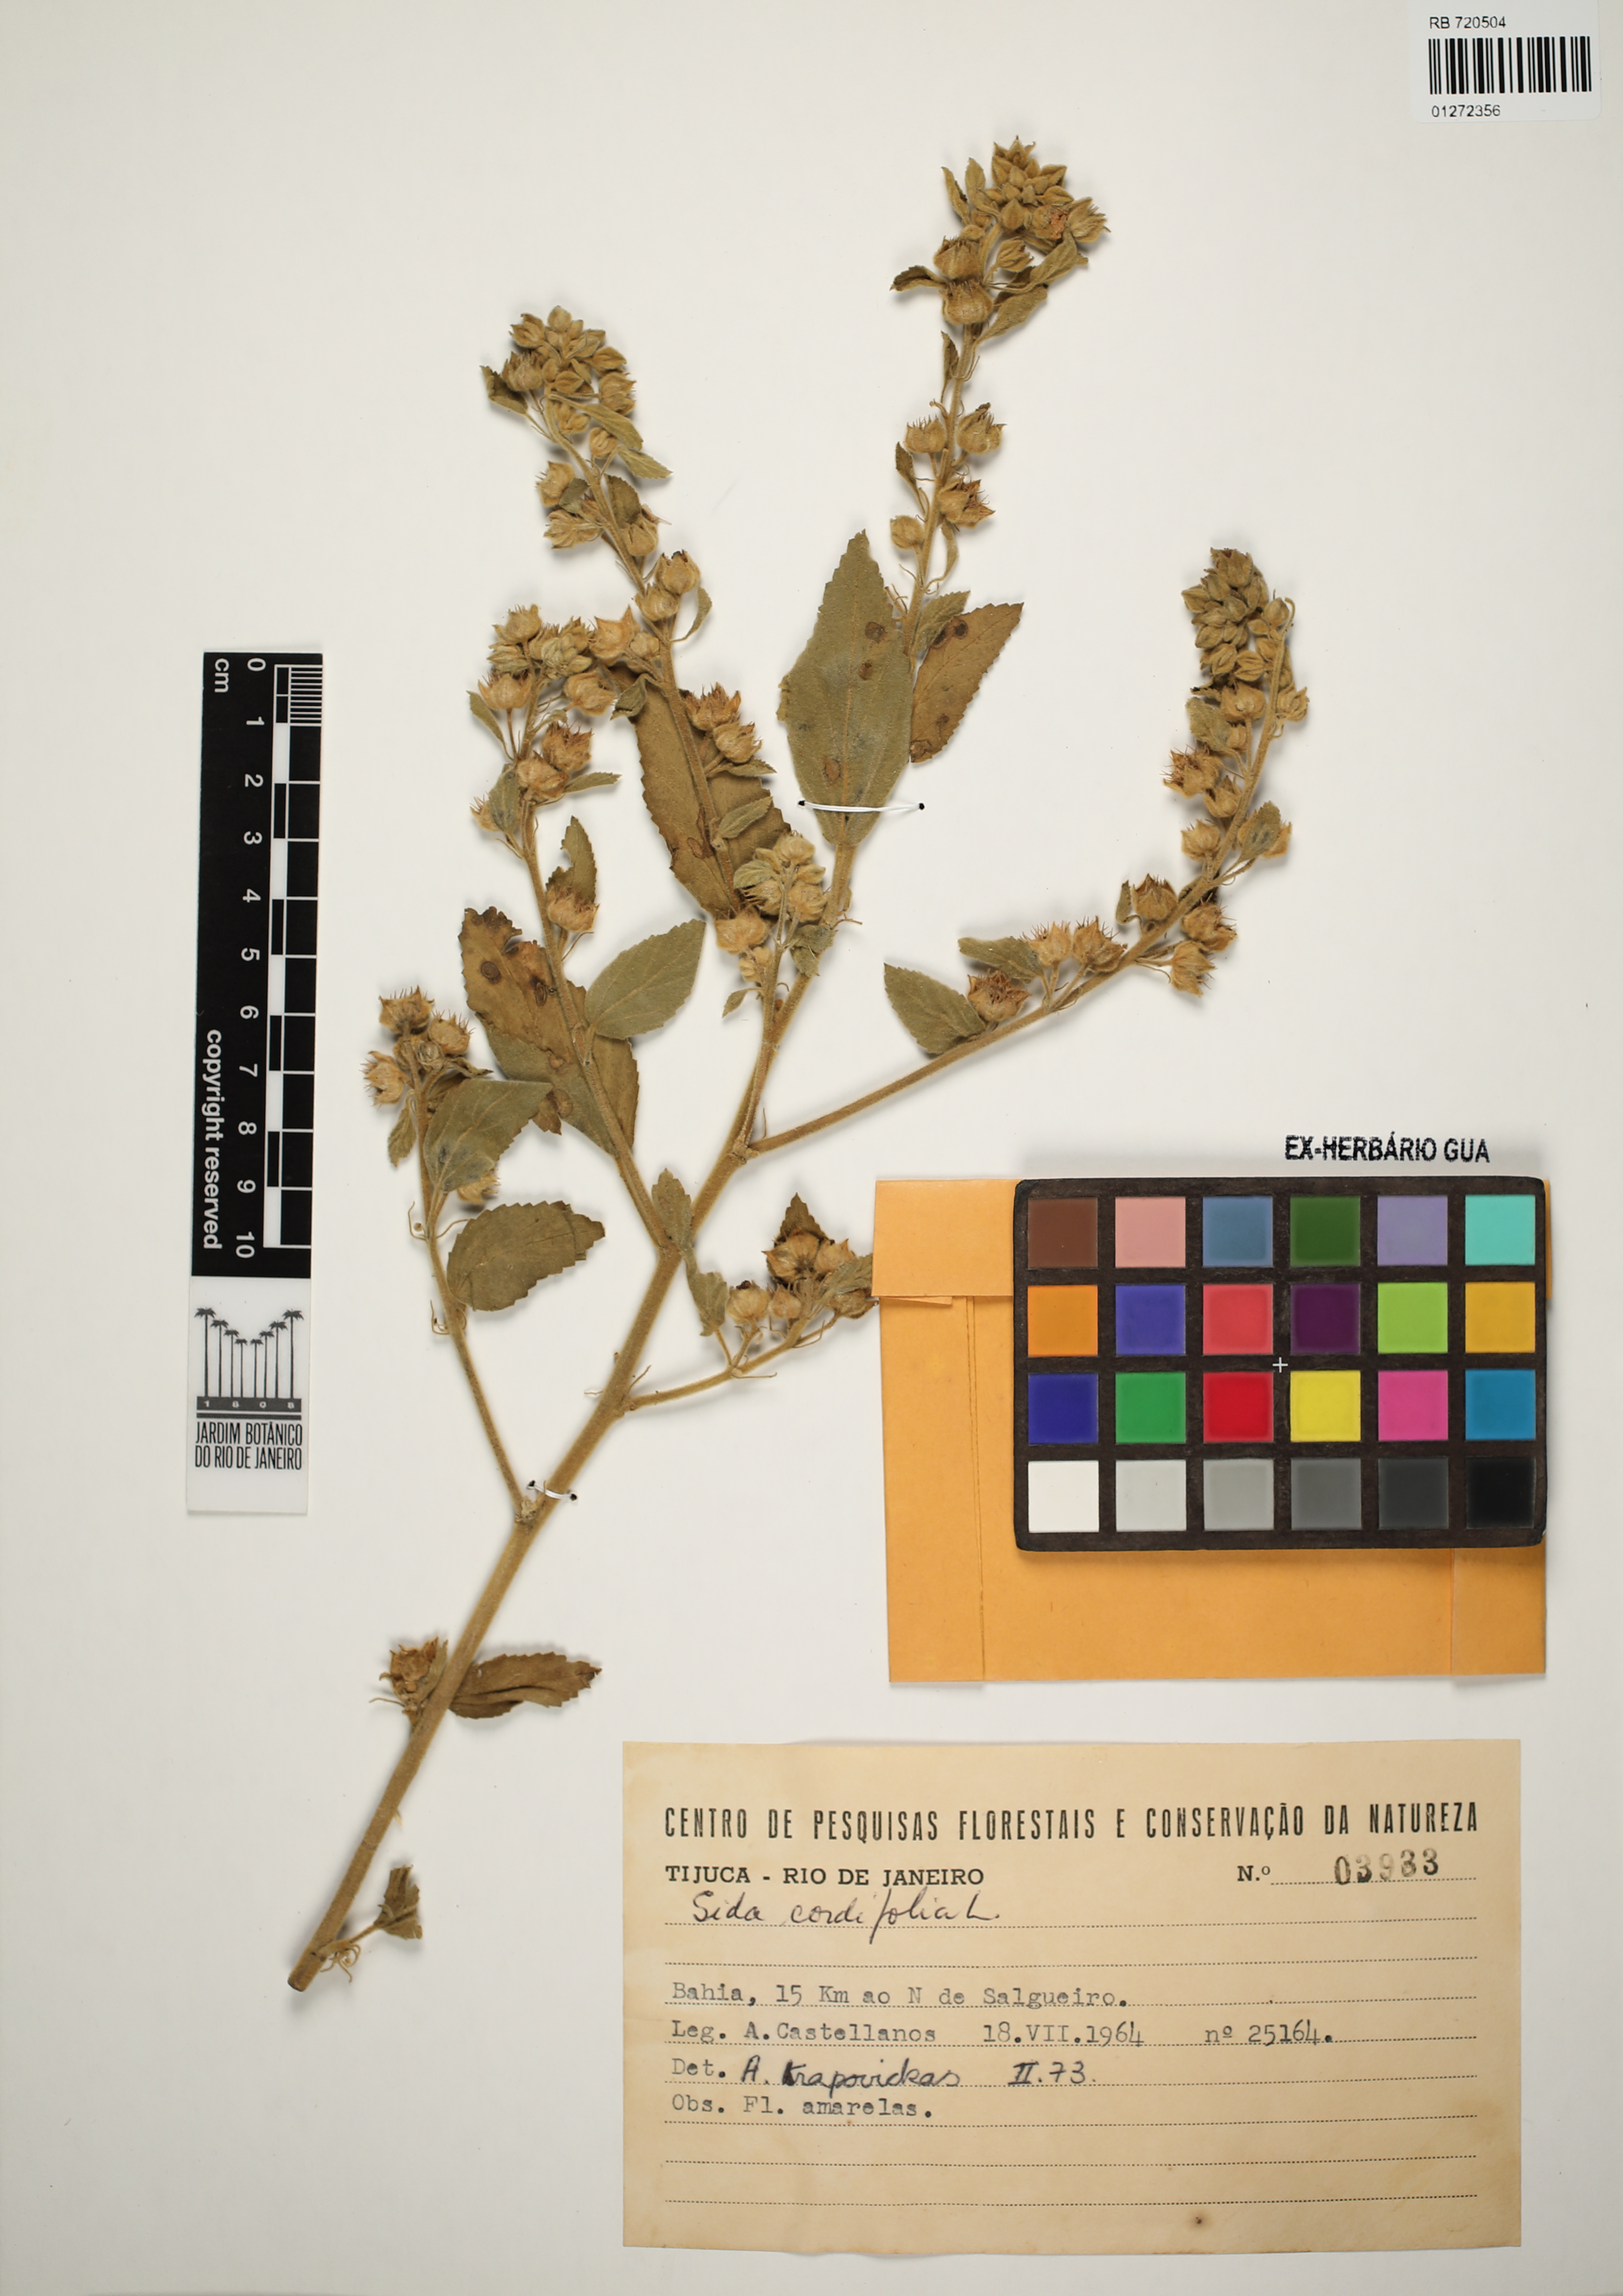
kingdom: Plantae
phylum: Tracheophyta
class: Magnoliopsida
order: Malvales
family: Malvaceae
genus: Sida
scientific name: Sida cordifolia
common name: Ilima
